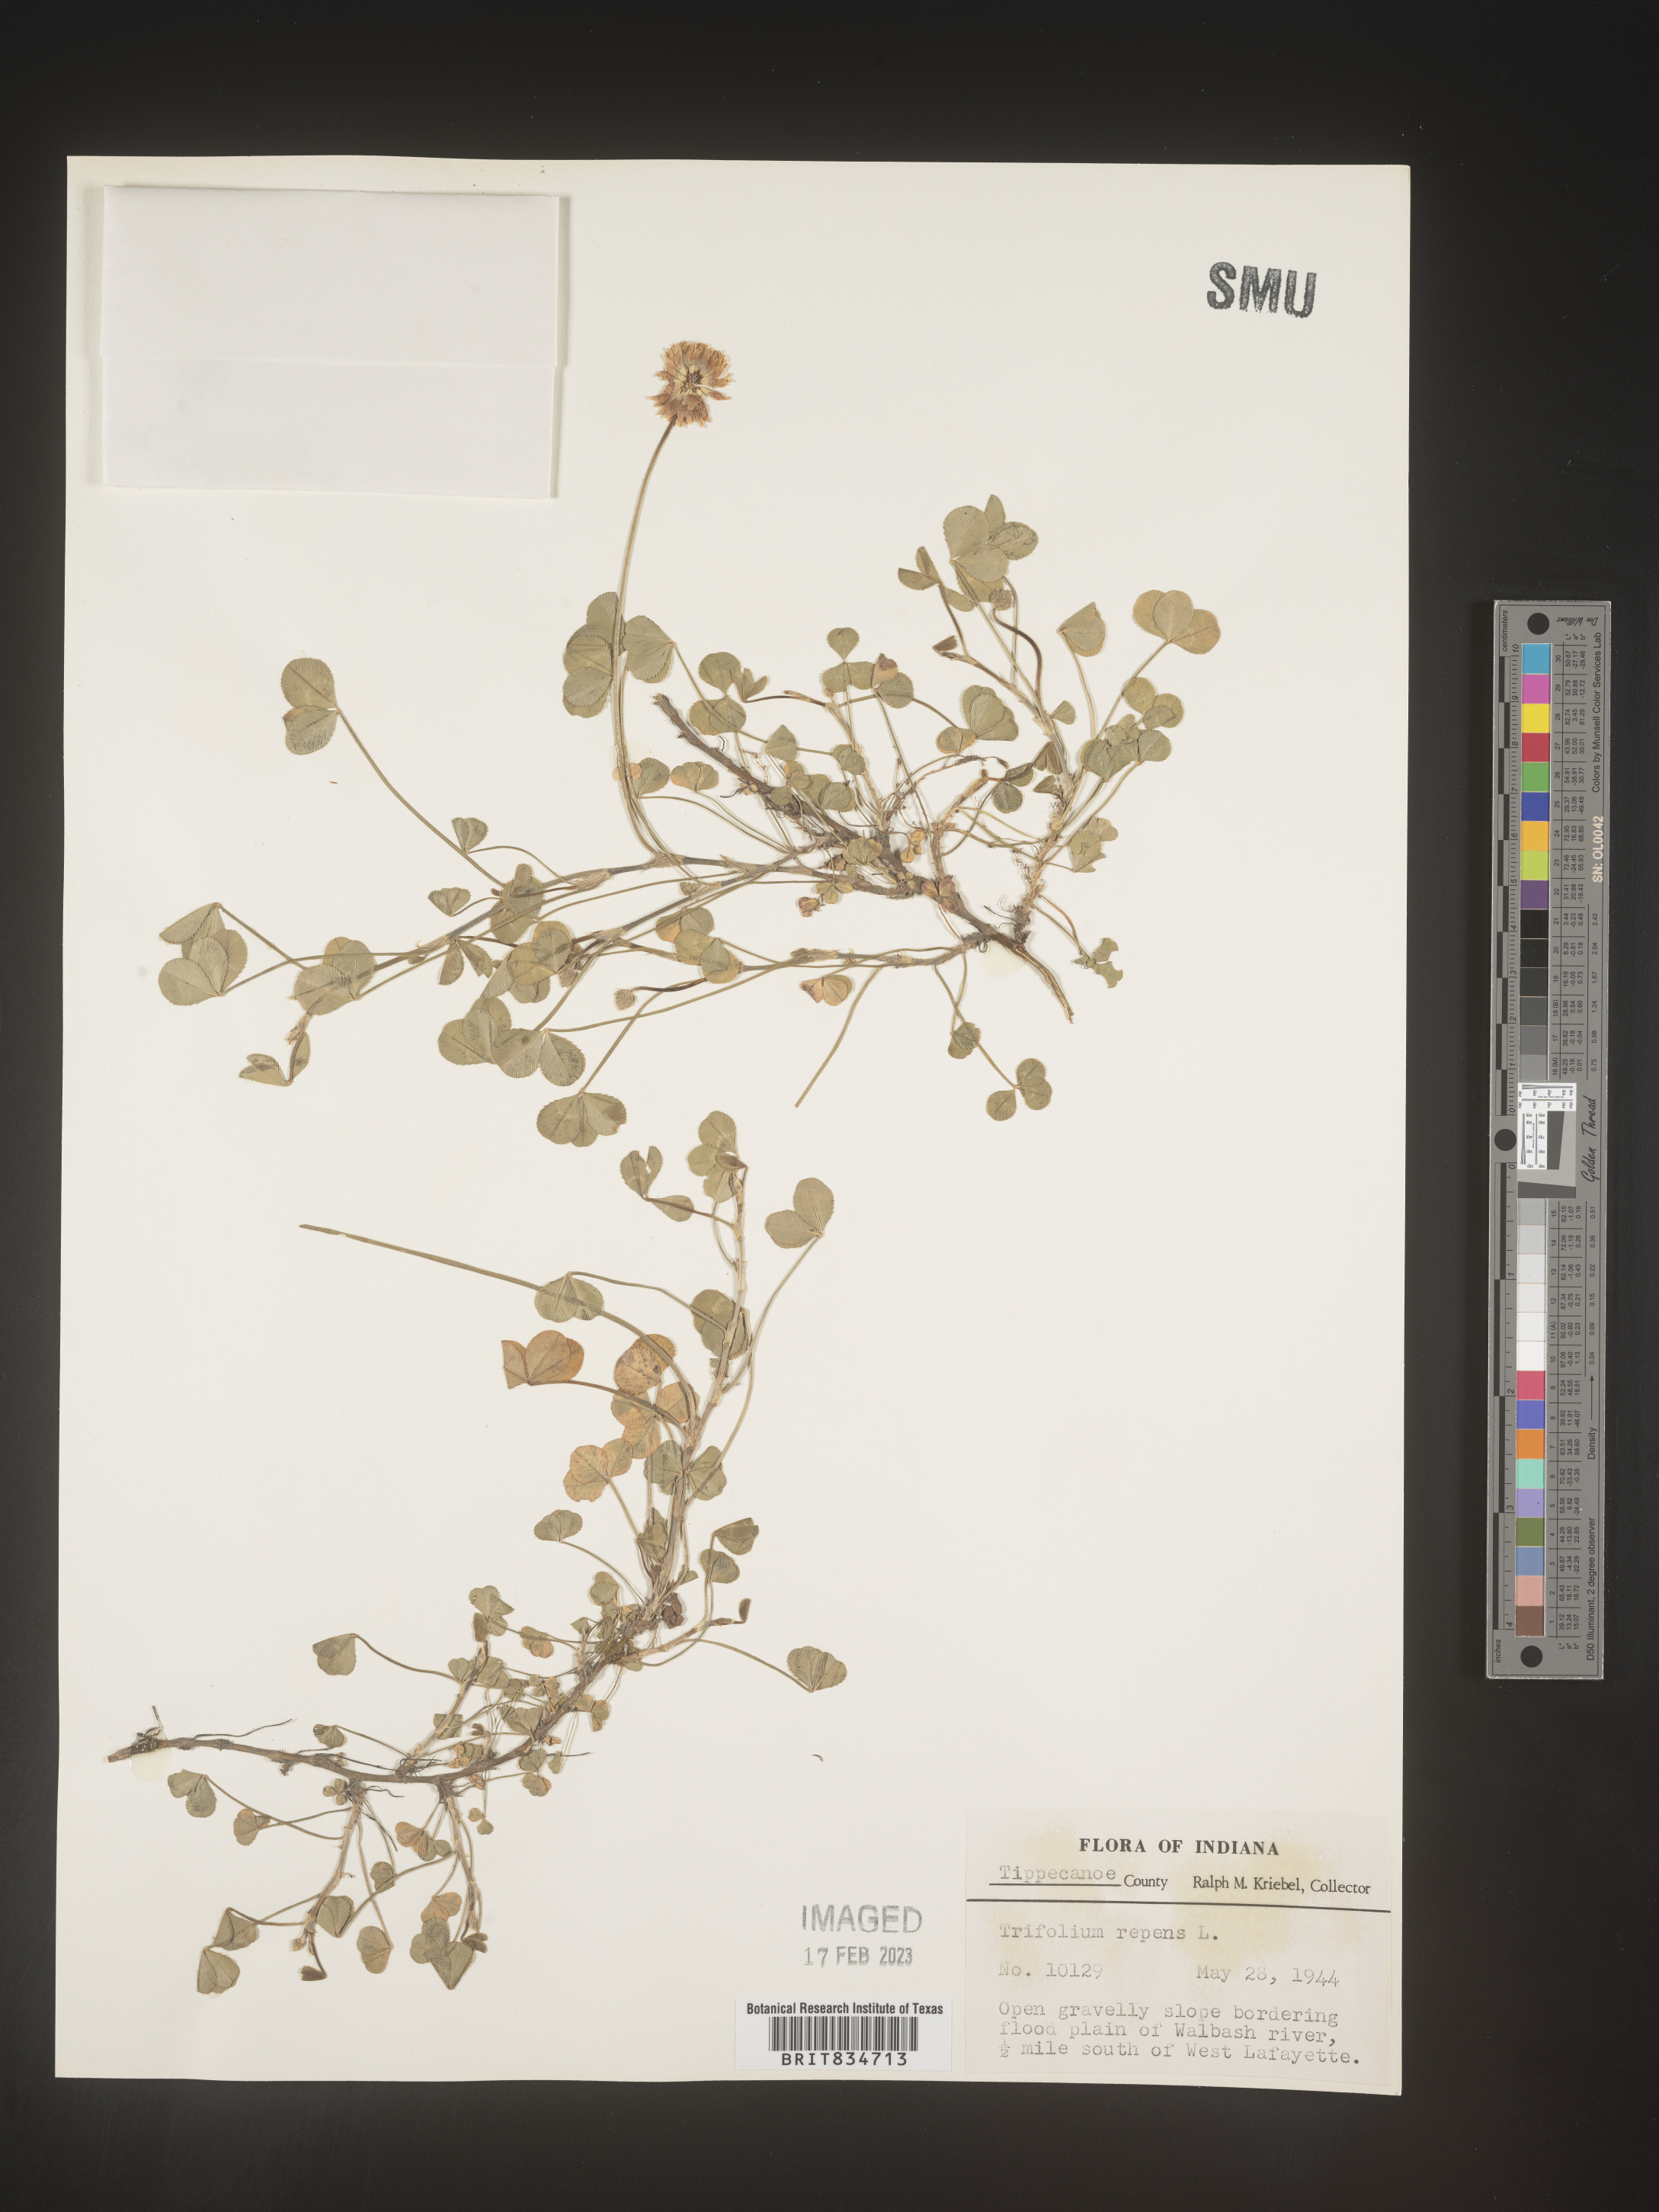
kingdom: Plantae
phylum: Tracheophyta
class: Magnoliopsida
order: Fabales
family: Fabaceae
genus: Trifolium
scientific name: Trifolium repens
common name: White clover
